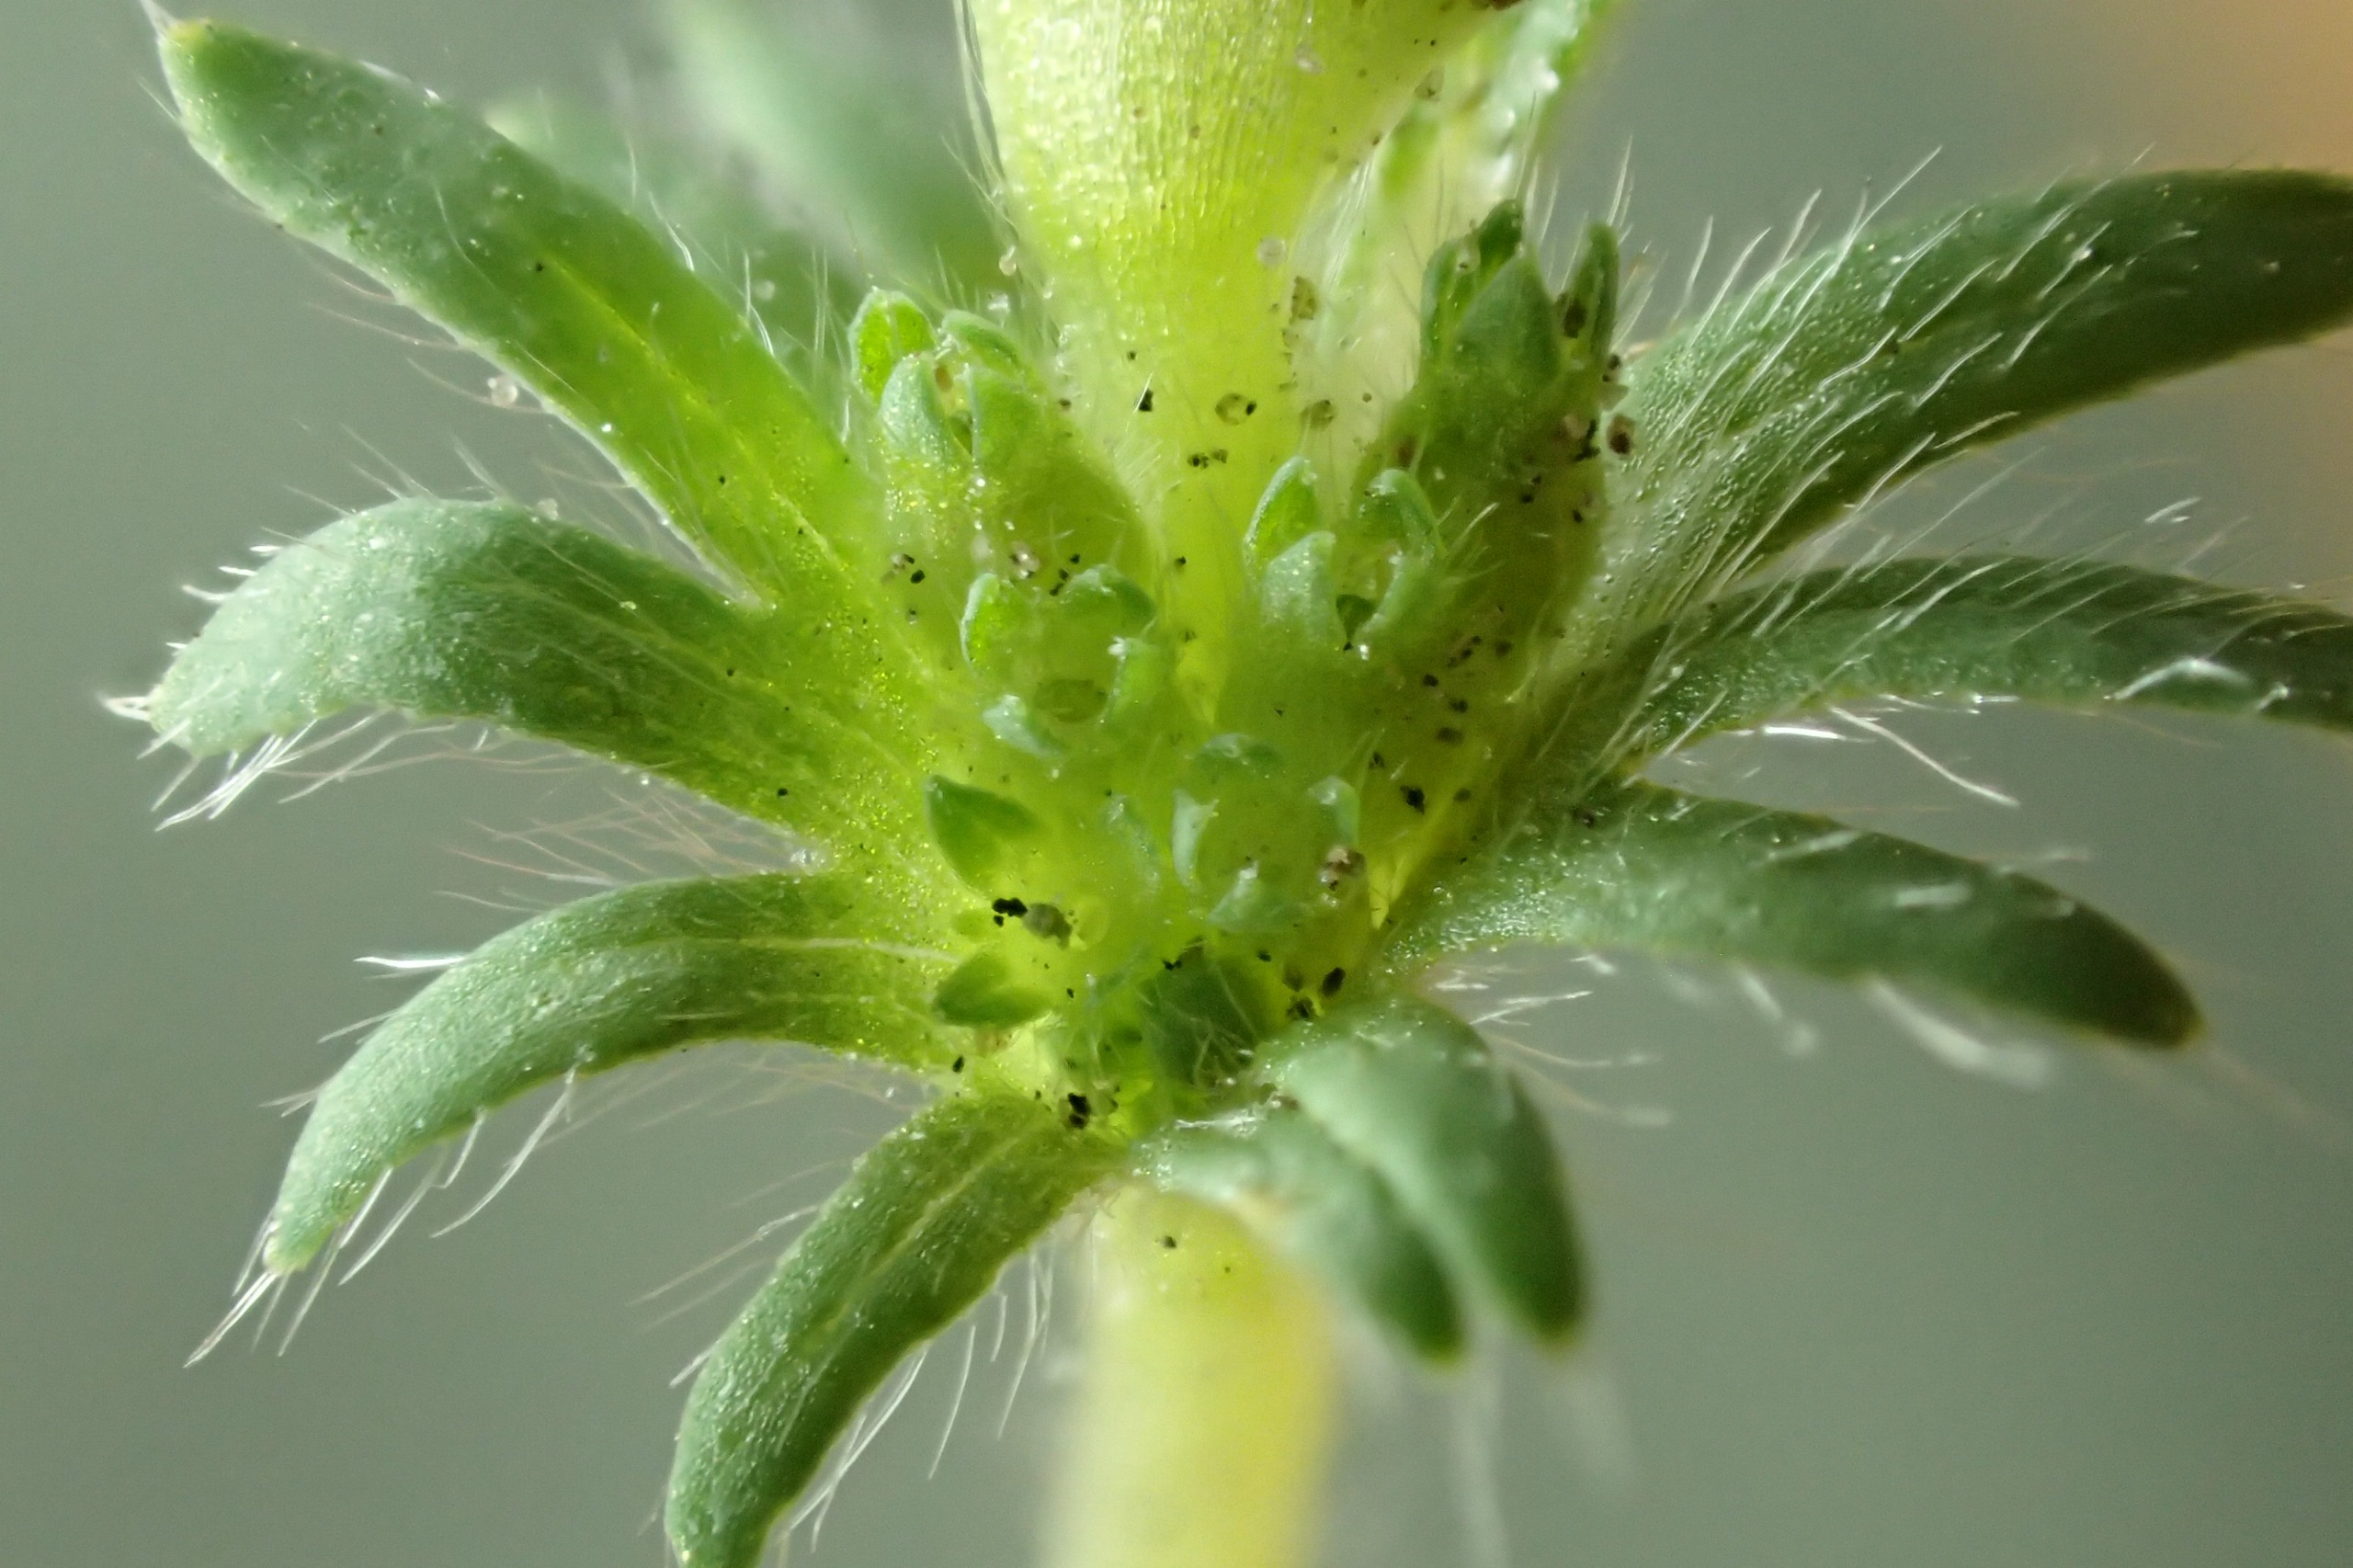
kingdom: Plantae
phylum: Tracheophyta
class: Magnoliopsida
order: Rosales
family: Rosaceae
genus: Aphanes
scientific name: Aphanes australis
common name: Småfrugtet dværgløvefod
